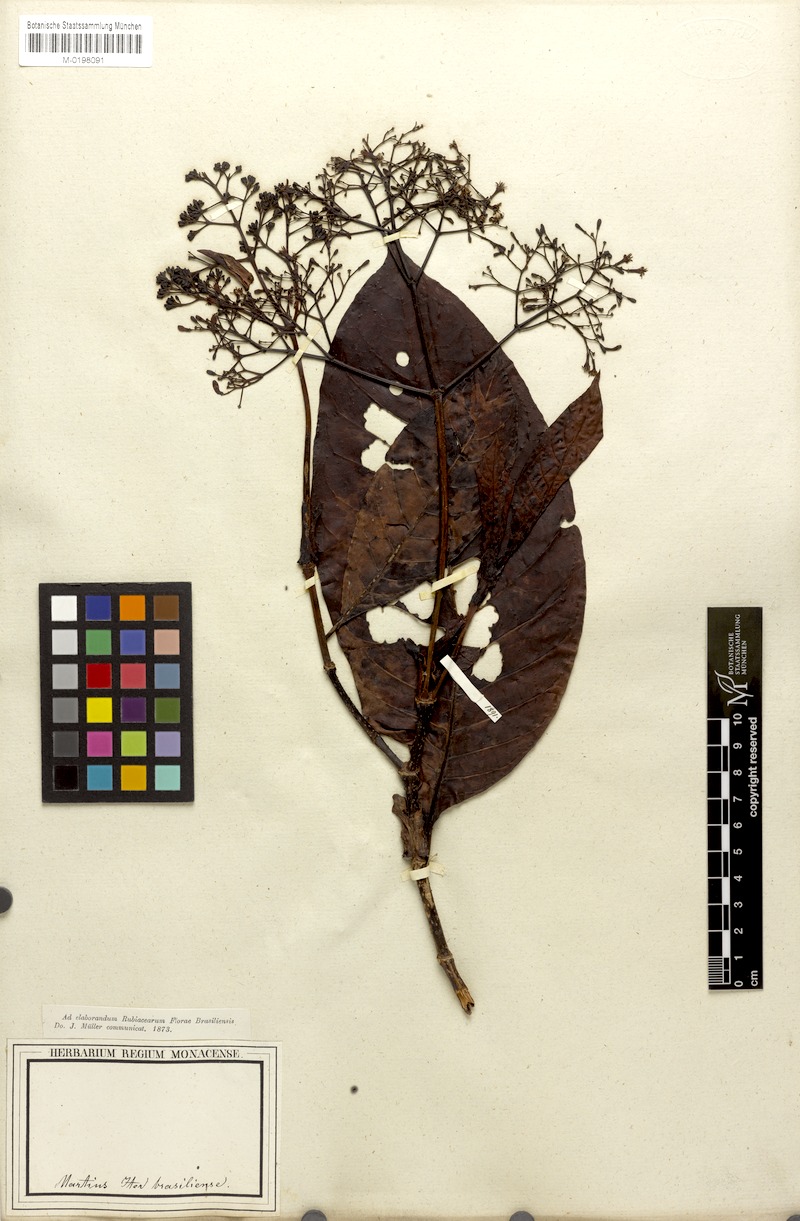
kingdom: Plantae
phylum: Tracheophyta
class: Magnoliopsida
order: Gentianales
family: Rubiaceae
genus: Psychotria
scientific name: Psychotria pedunculosa
